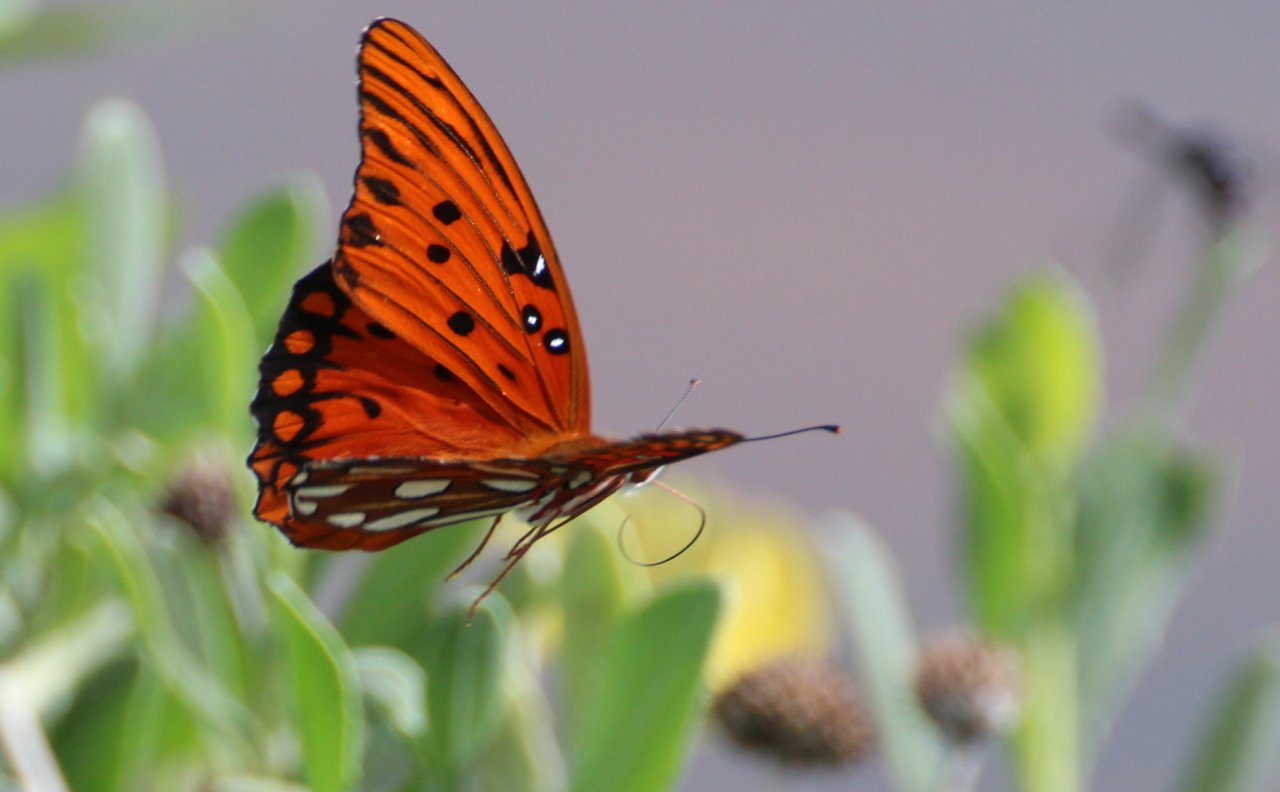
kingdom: Animalia
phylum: Arthropoda
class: Insecta
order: Lepidoptera
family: Nymphalidae
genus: Dione
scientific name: Dione vanillae
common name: Gulf Fritillary
